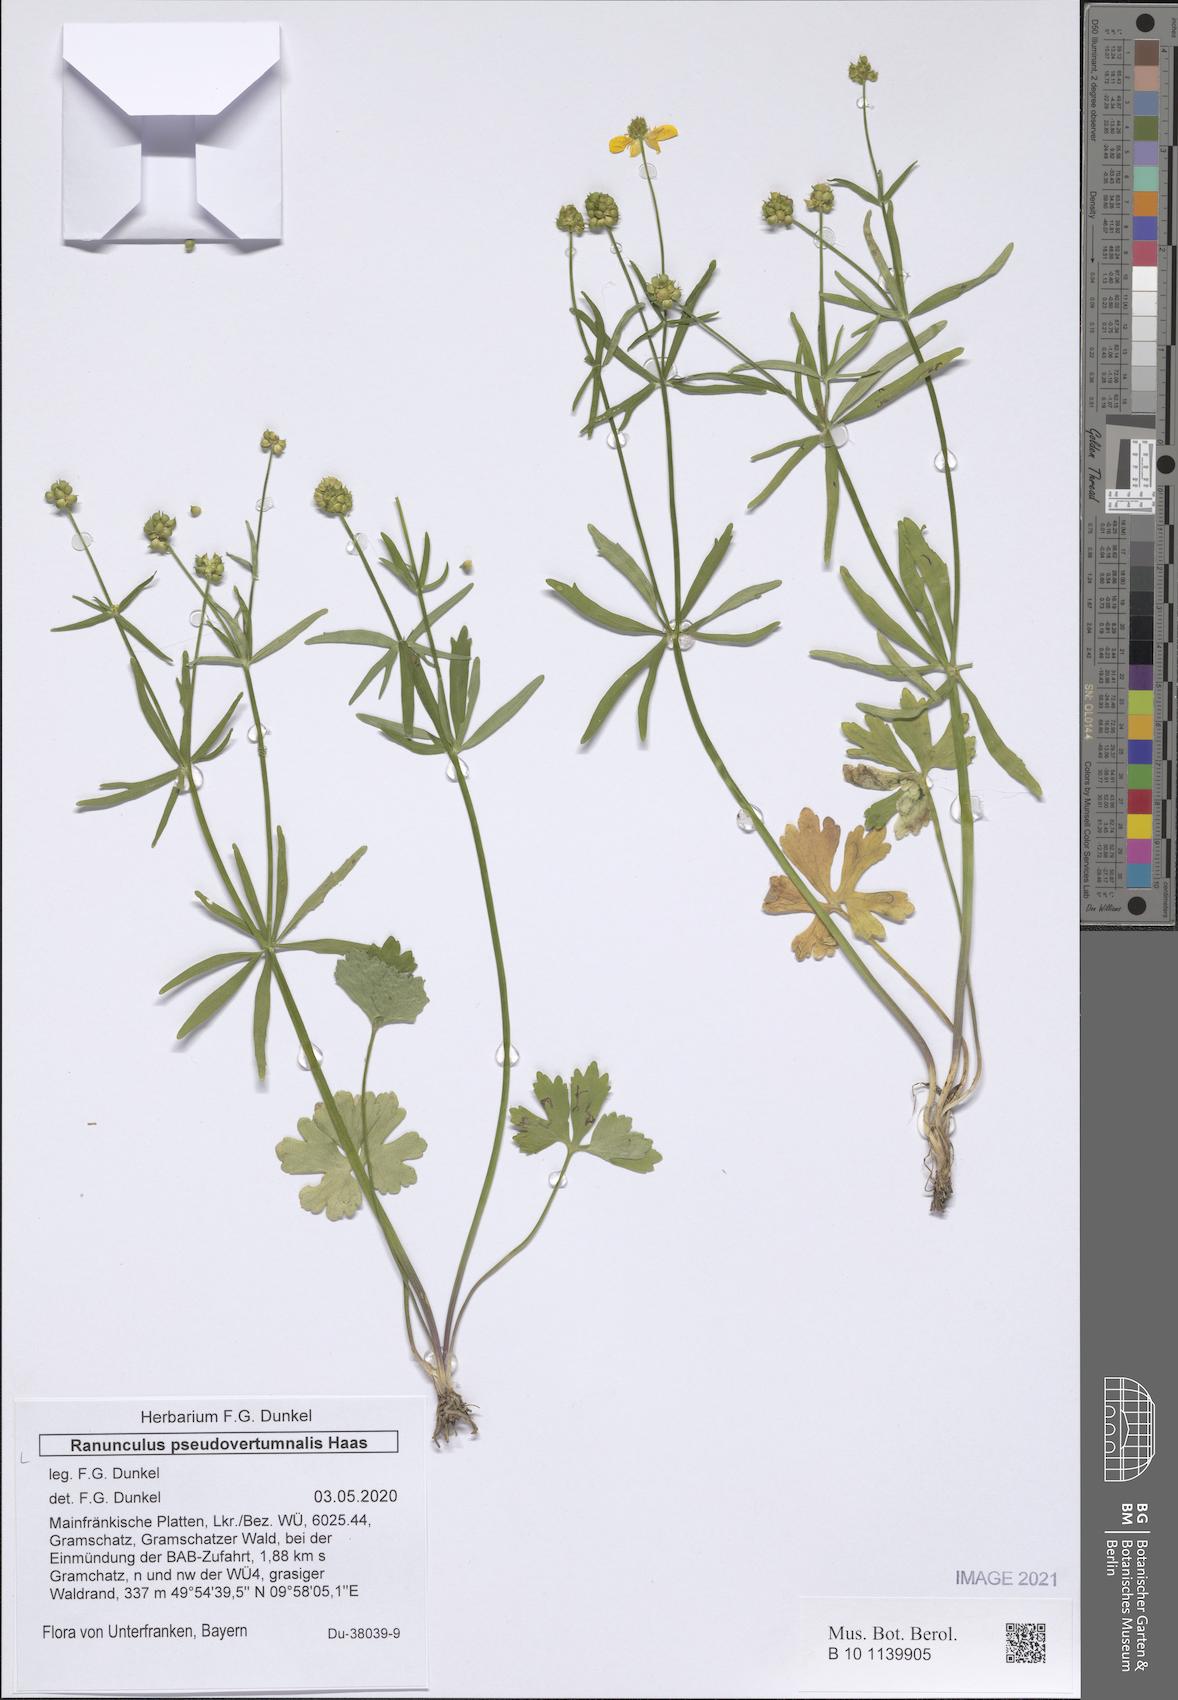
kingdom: Plantae
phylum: Tracheophyta
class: Magnoliopsida
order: Ranunculales
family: Ranunculaceae
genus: Ranunculus
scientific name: Ranunculus pseudovertumnalis
